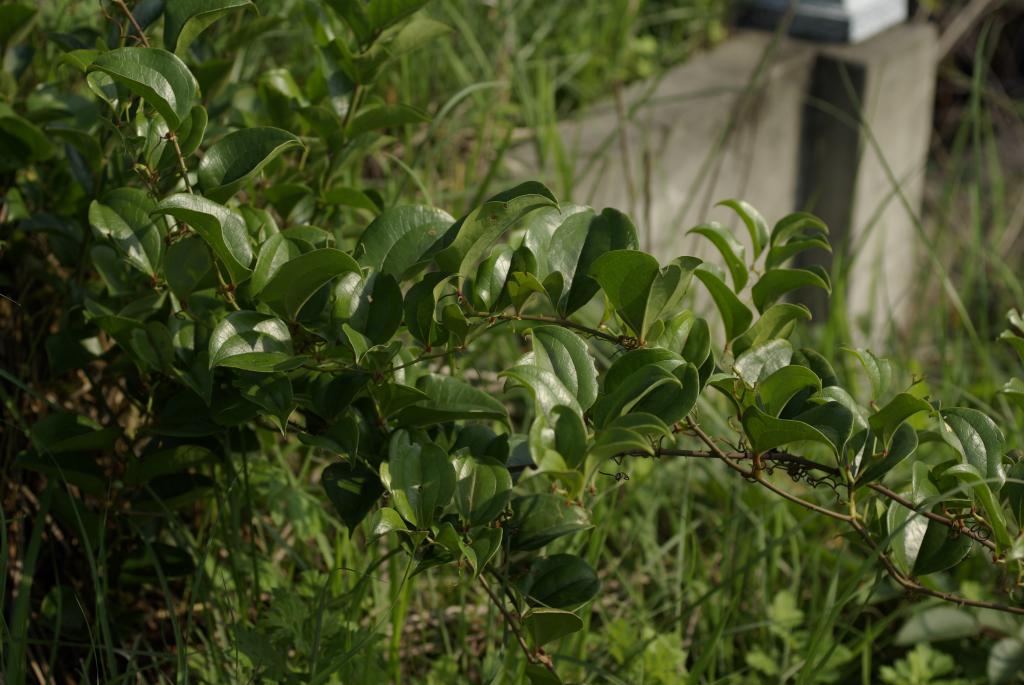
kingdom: Plantae
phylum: Tracheophyta
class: Liliopsida
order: Liliales
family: Smilacaceae
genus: Smilax
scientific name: Smilax china
